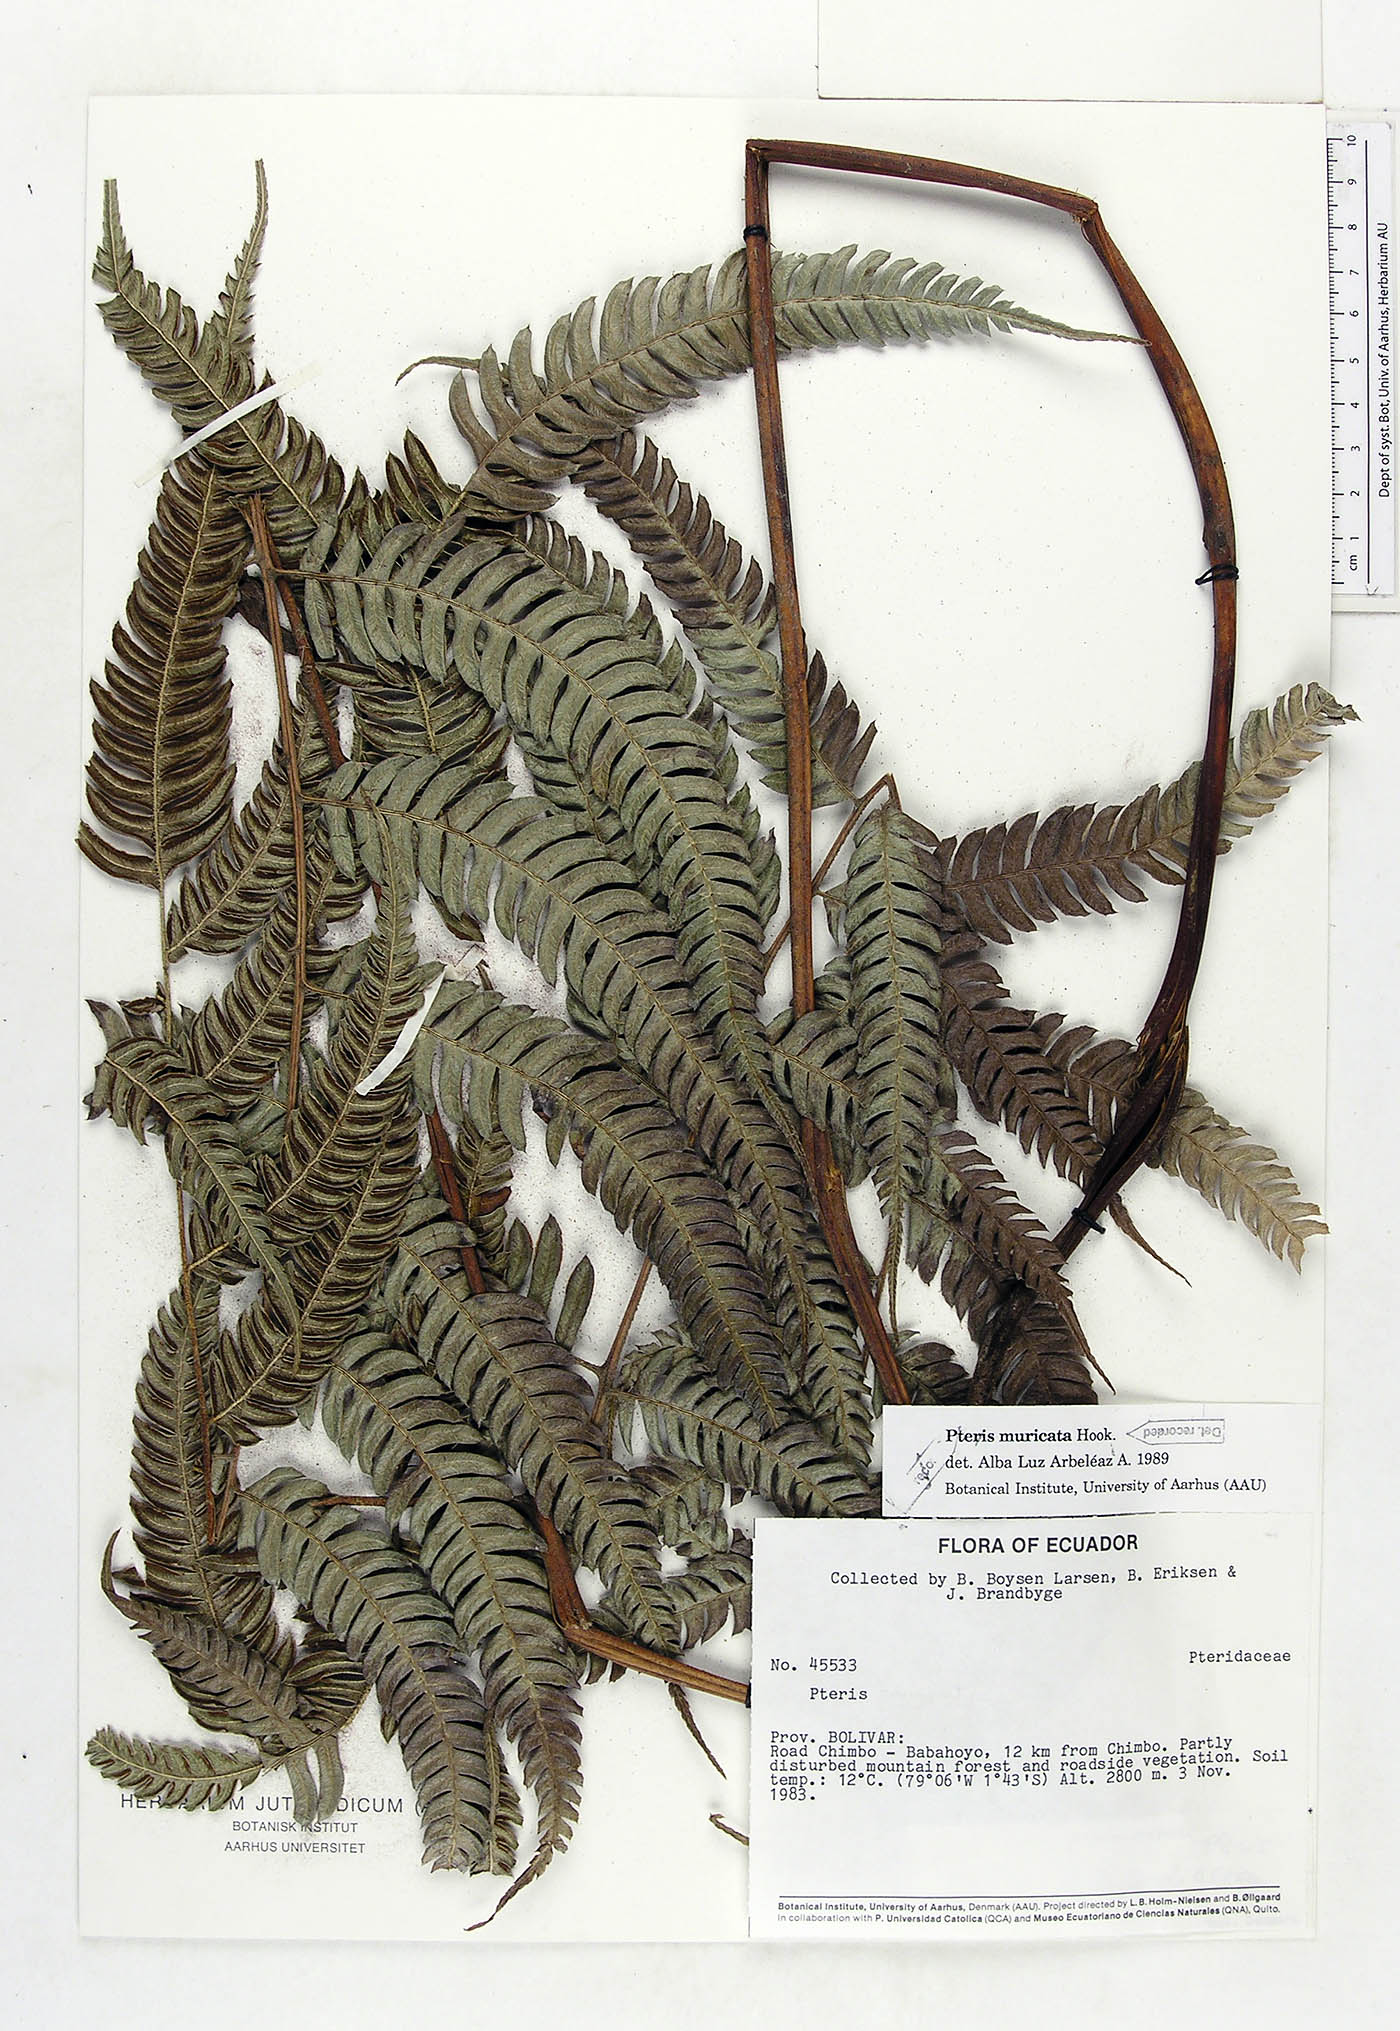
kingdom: Plantae
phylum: Tracheophyta
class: Polypodiopsida
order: Polypodiales
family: Pteridaceae
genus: Pteris
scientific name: Pteris muricata
